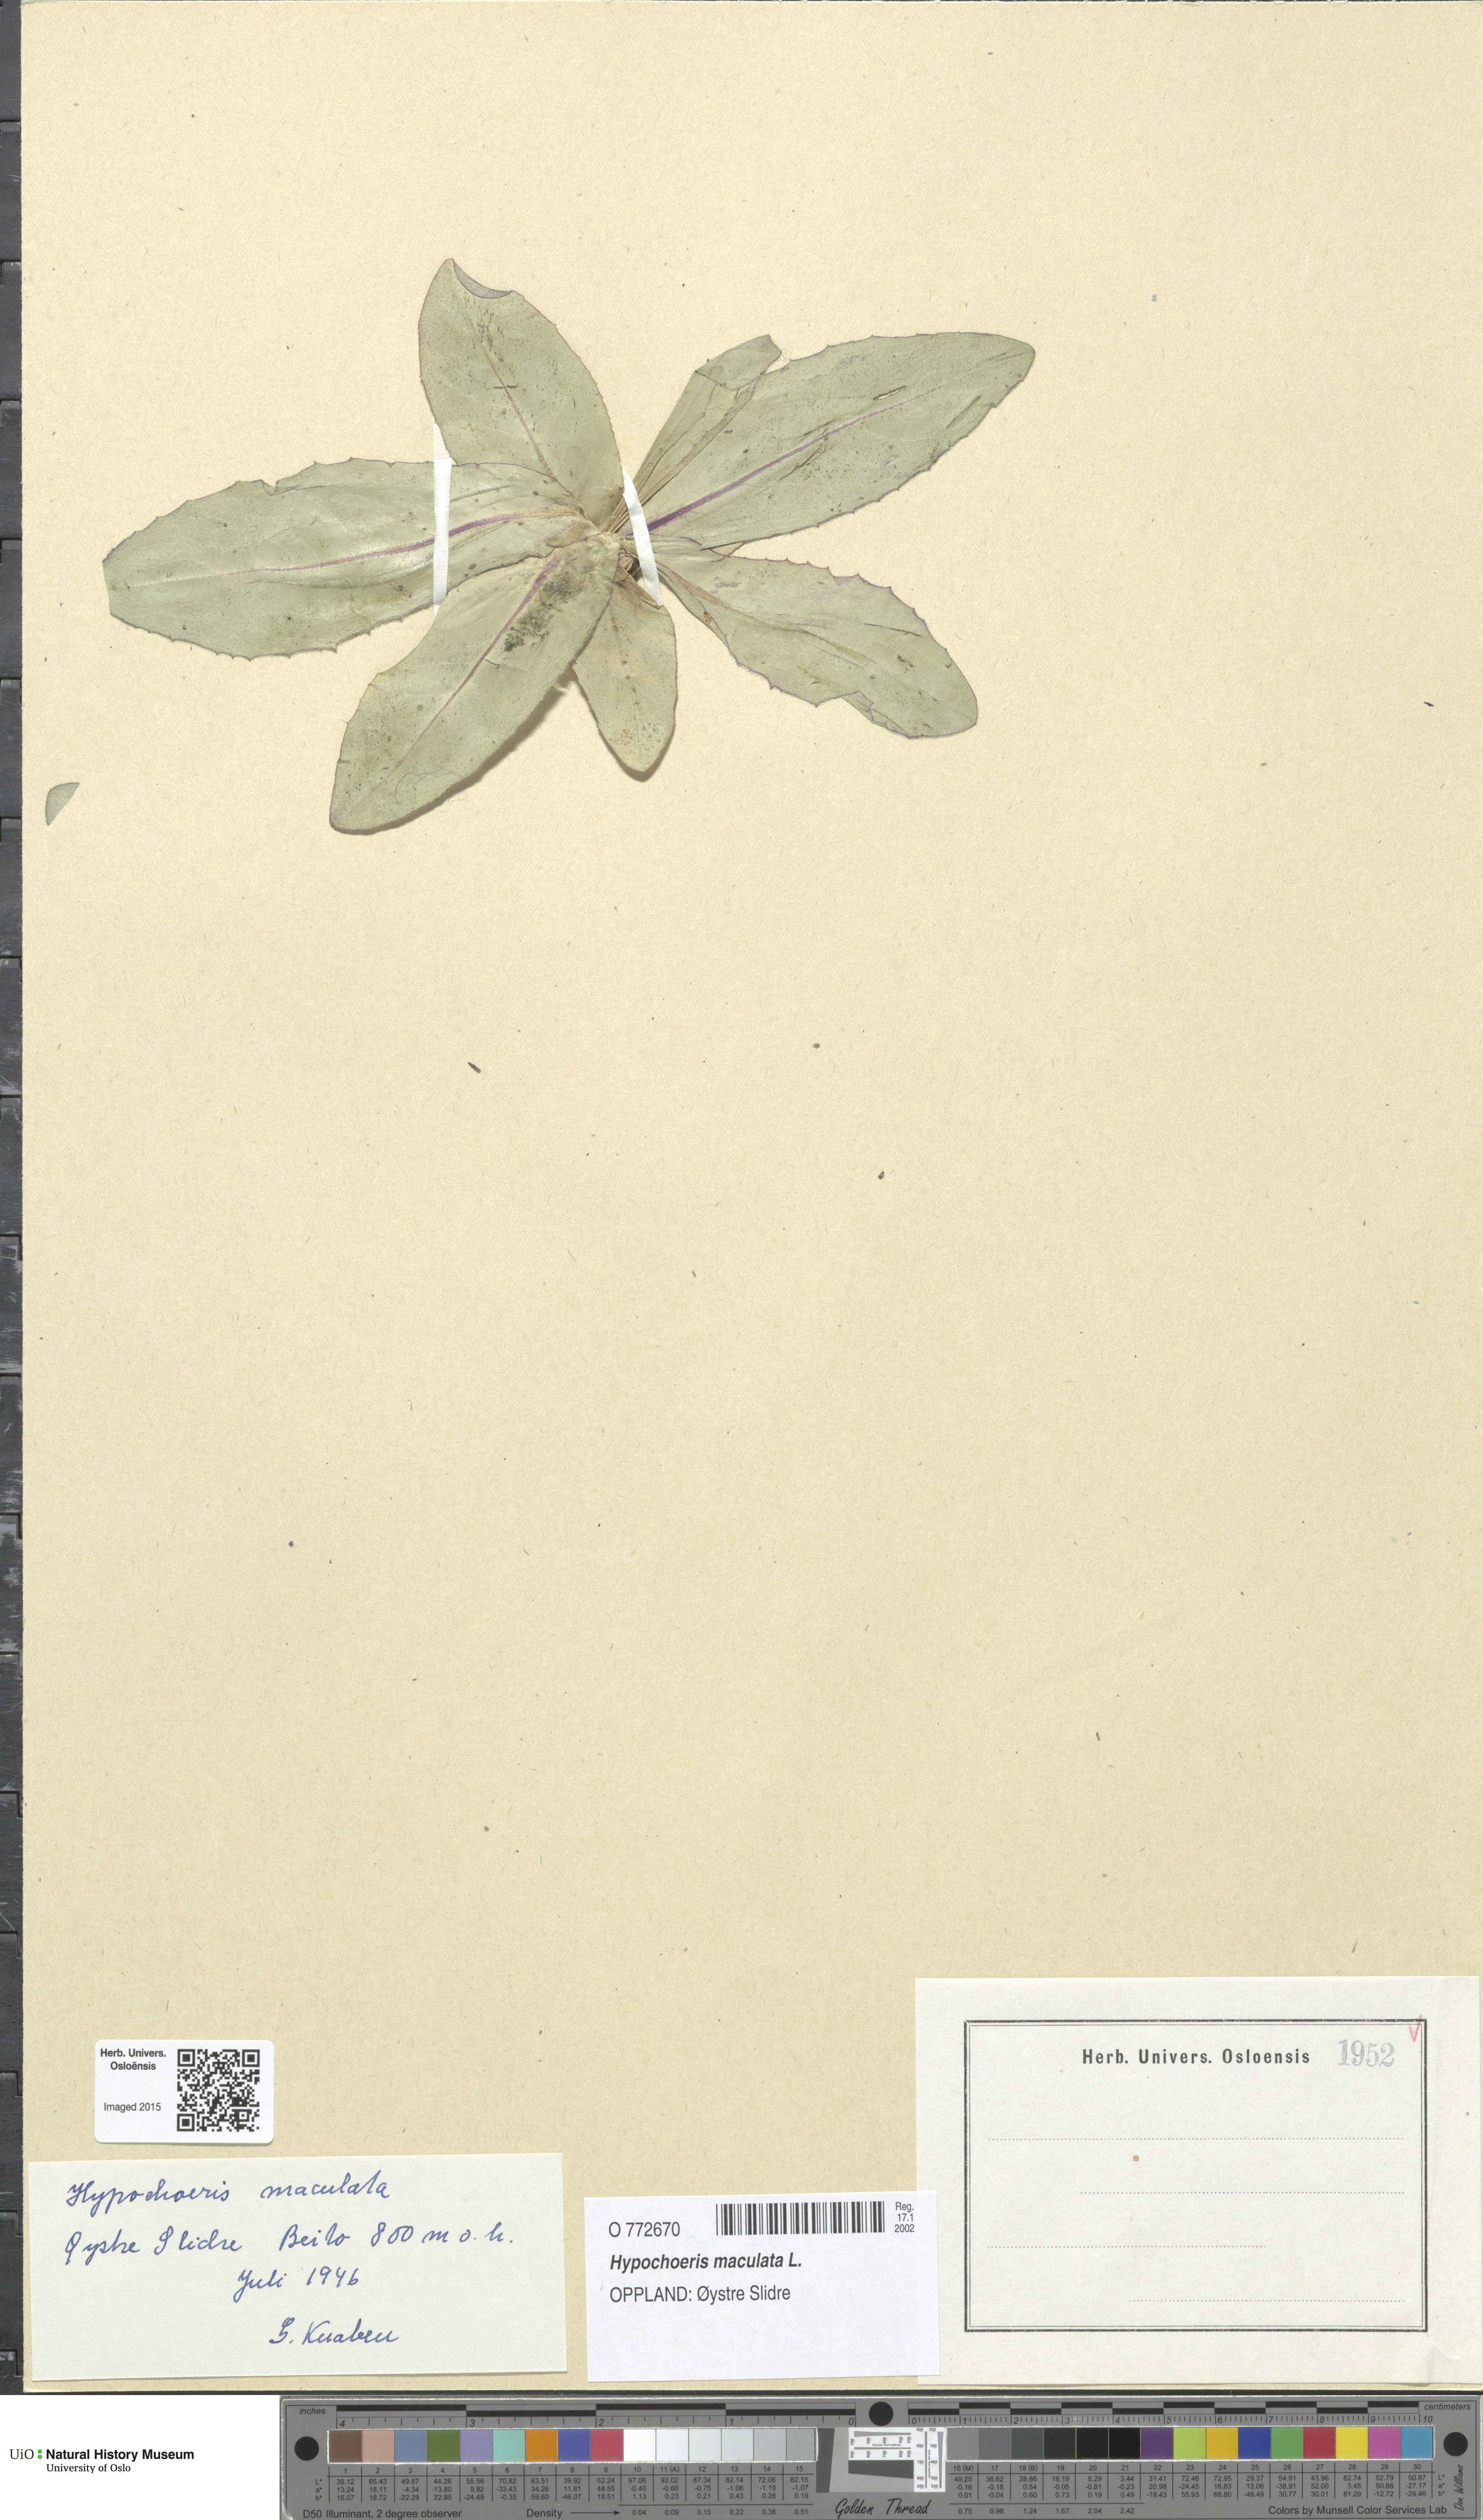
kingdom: Plantae
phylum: Tracheophyta
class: Magnoliopsida
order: Asterales
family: Asteraceae
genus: Trommsdorffia
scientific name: Trommsdorffia maculata
